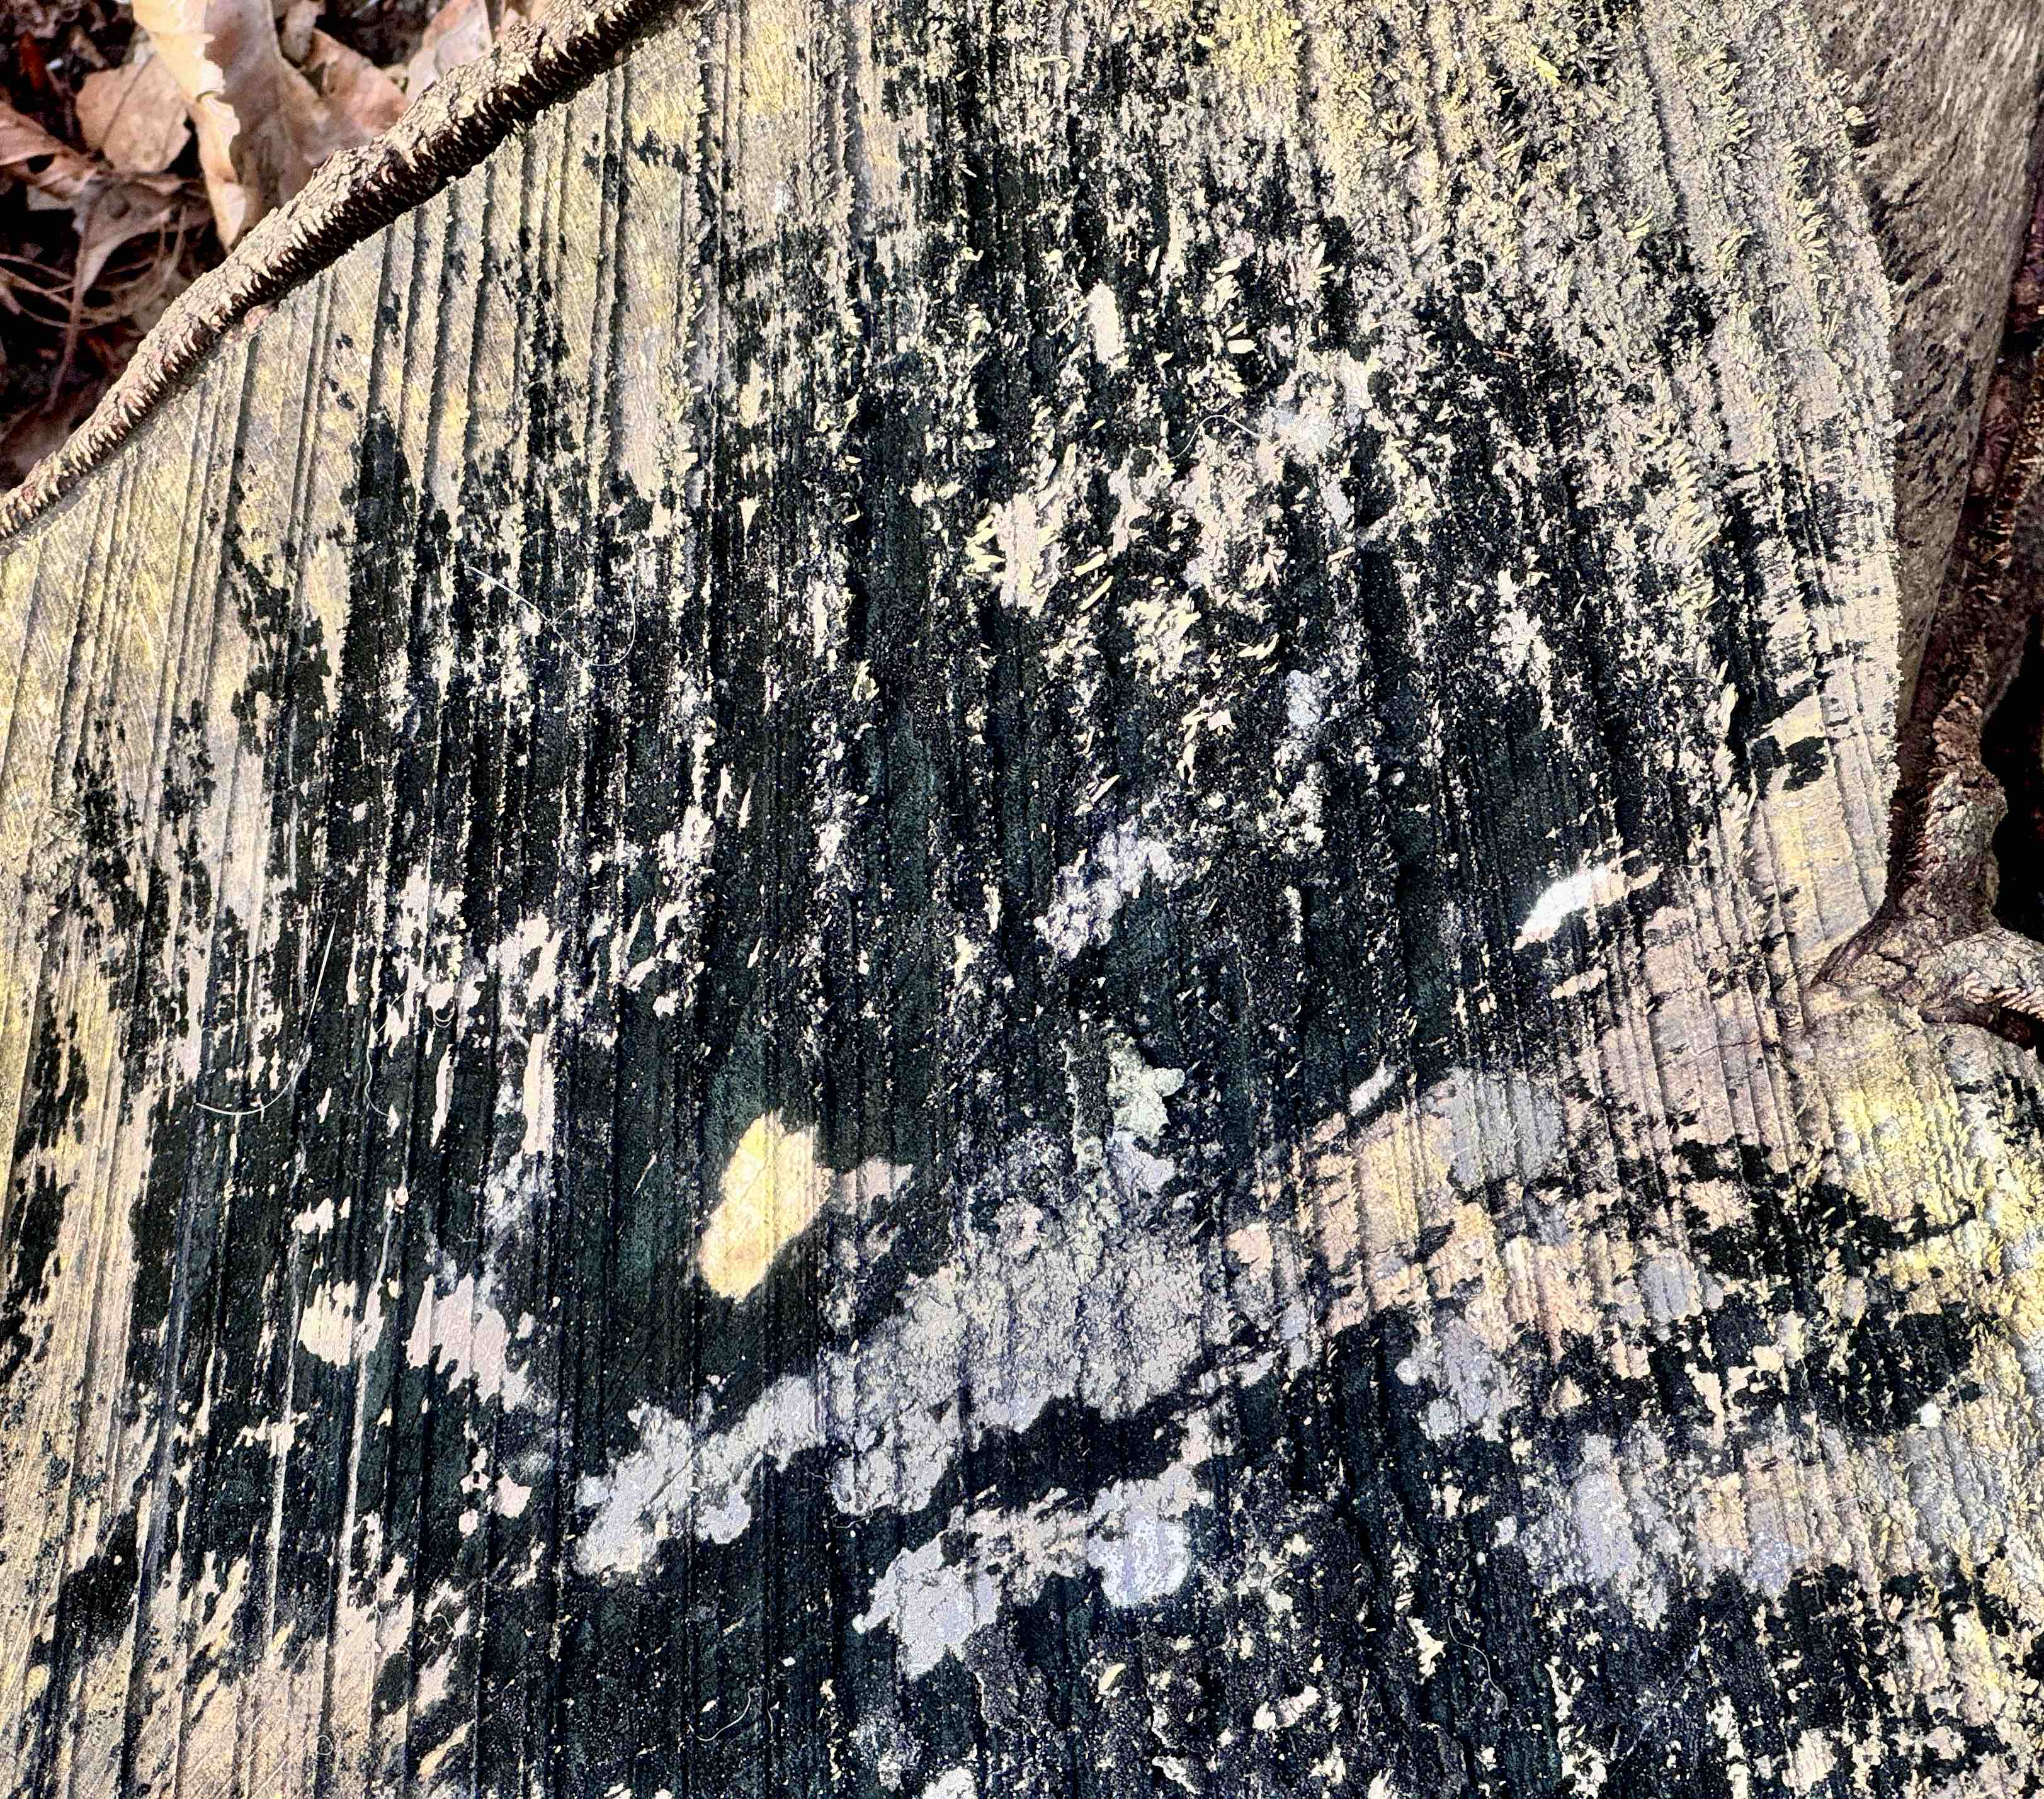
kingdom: Fungi
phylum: Ascomycota
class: Leotiomycetes
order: Helotiales
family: Helotiaceae
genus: Bispora
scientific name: Bispora pallescens
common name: måtte-snitskive
